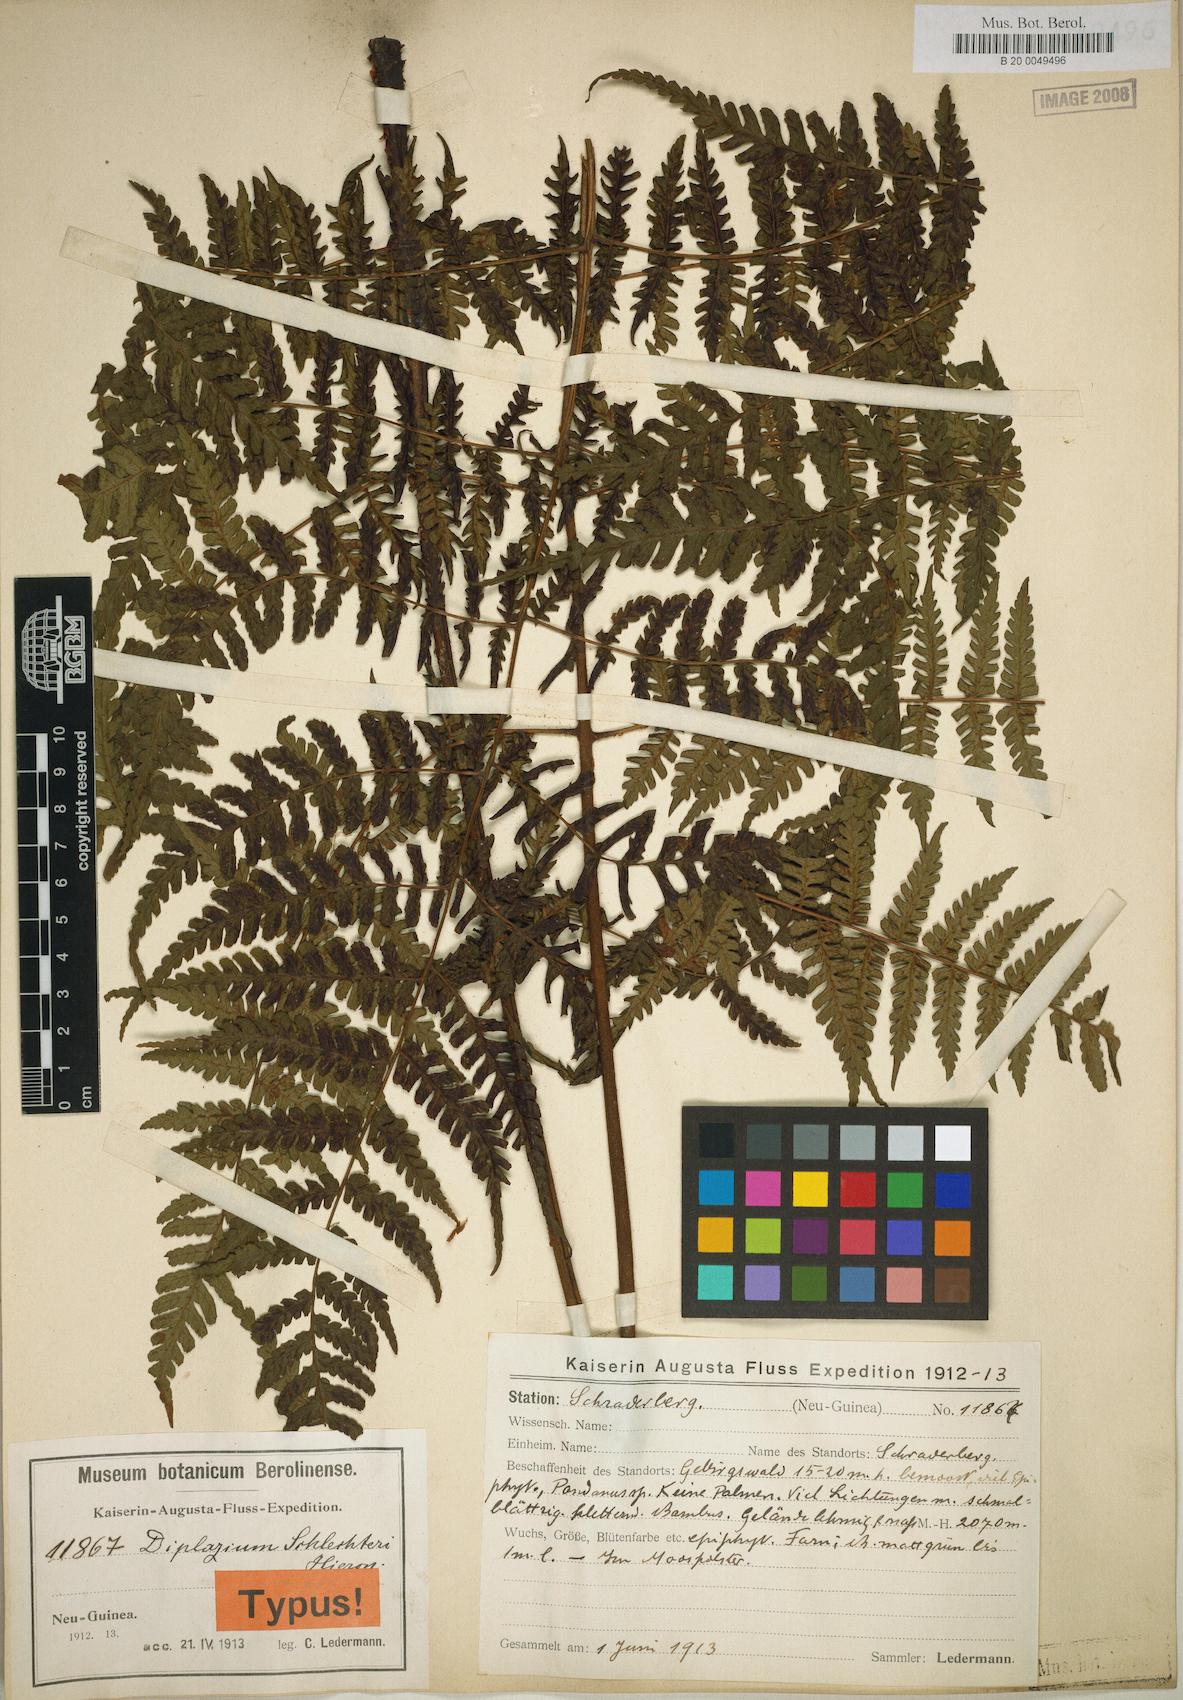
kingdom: Plantae
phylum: Tracheophyta
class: Polypodiopsida
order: Polypodiales
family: Athyriaceae
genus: Diplazium
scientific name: Diplazium schlechteri
